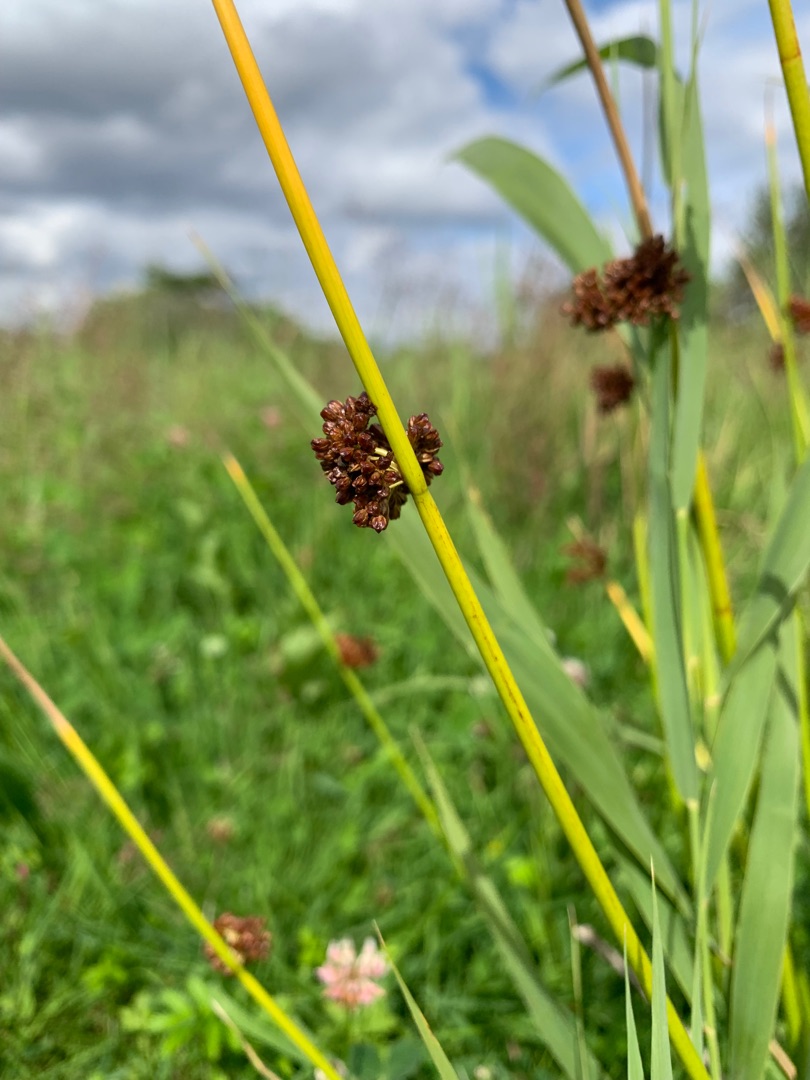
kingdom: Plantae
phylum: Tracheophyta
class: Liliopsida
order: Poales
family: Juncaceae
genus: Juncus
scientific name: Juncus effusus
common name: Lyse-siv
